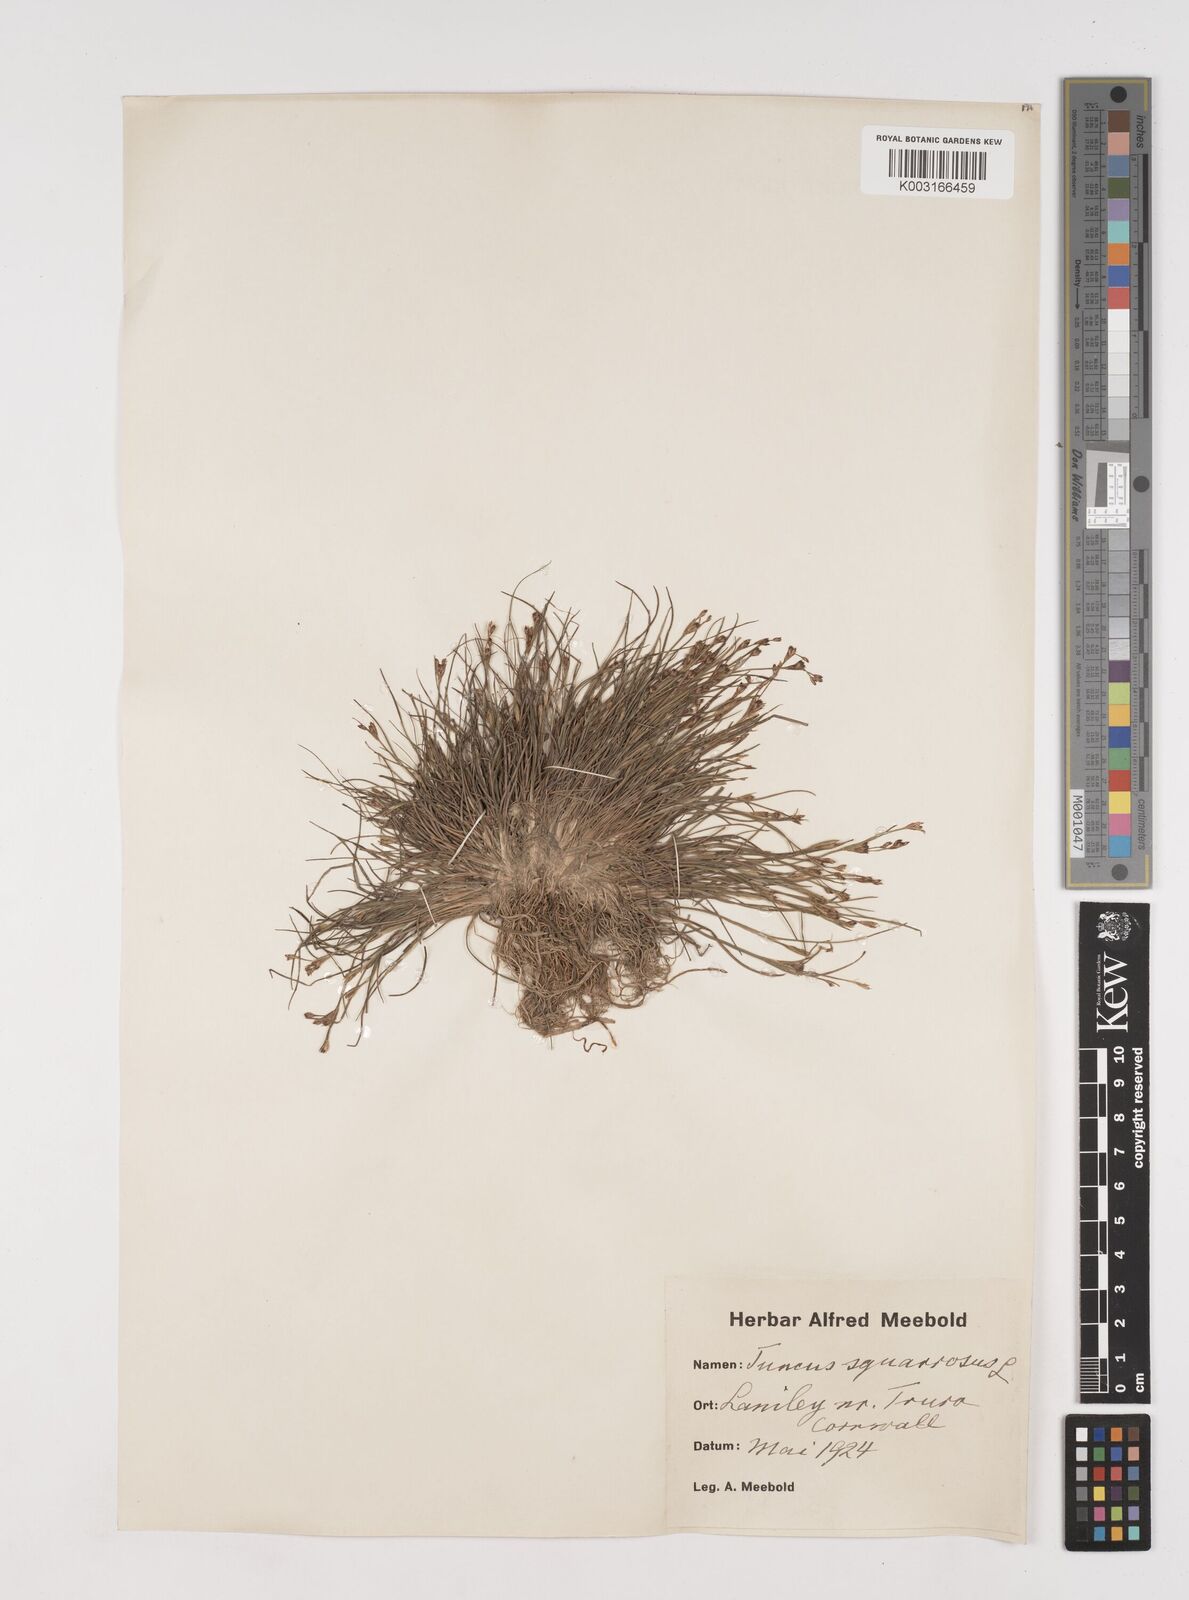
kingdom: Plantae
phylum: Tracheophyta
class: Liliopsida
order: Poales
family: Juncaceae
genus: Juncus
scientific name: Juncus squarrosus
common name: Heath rush
